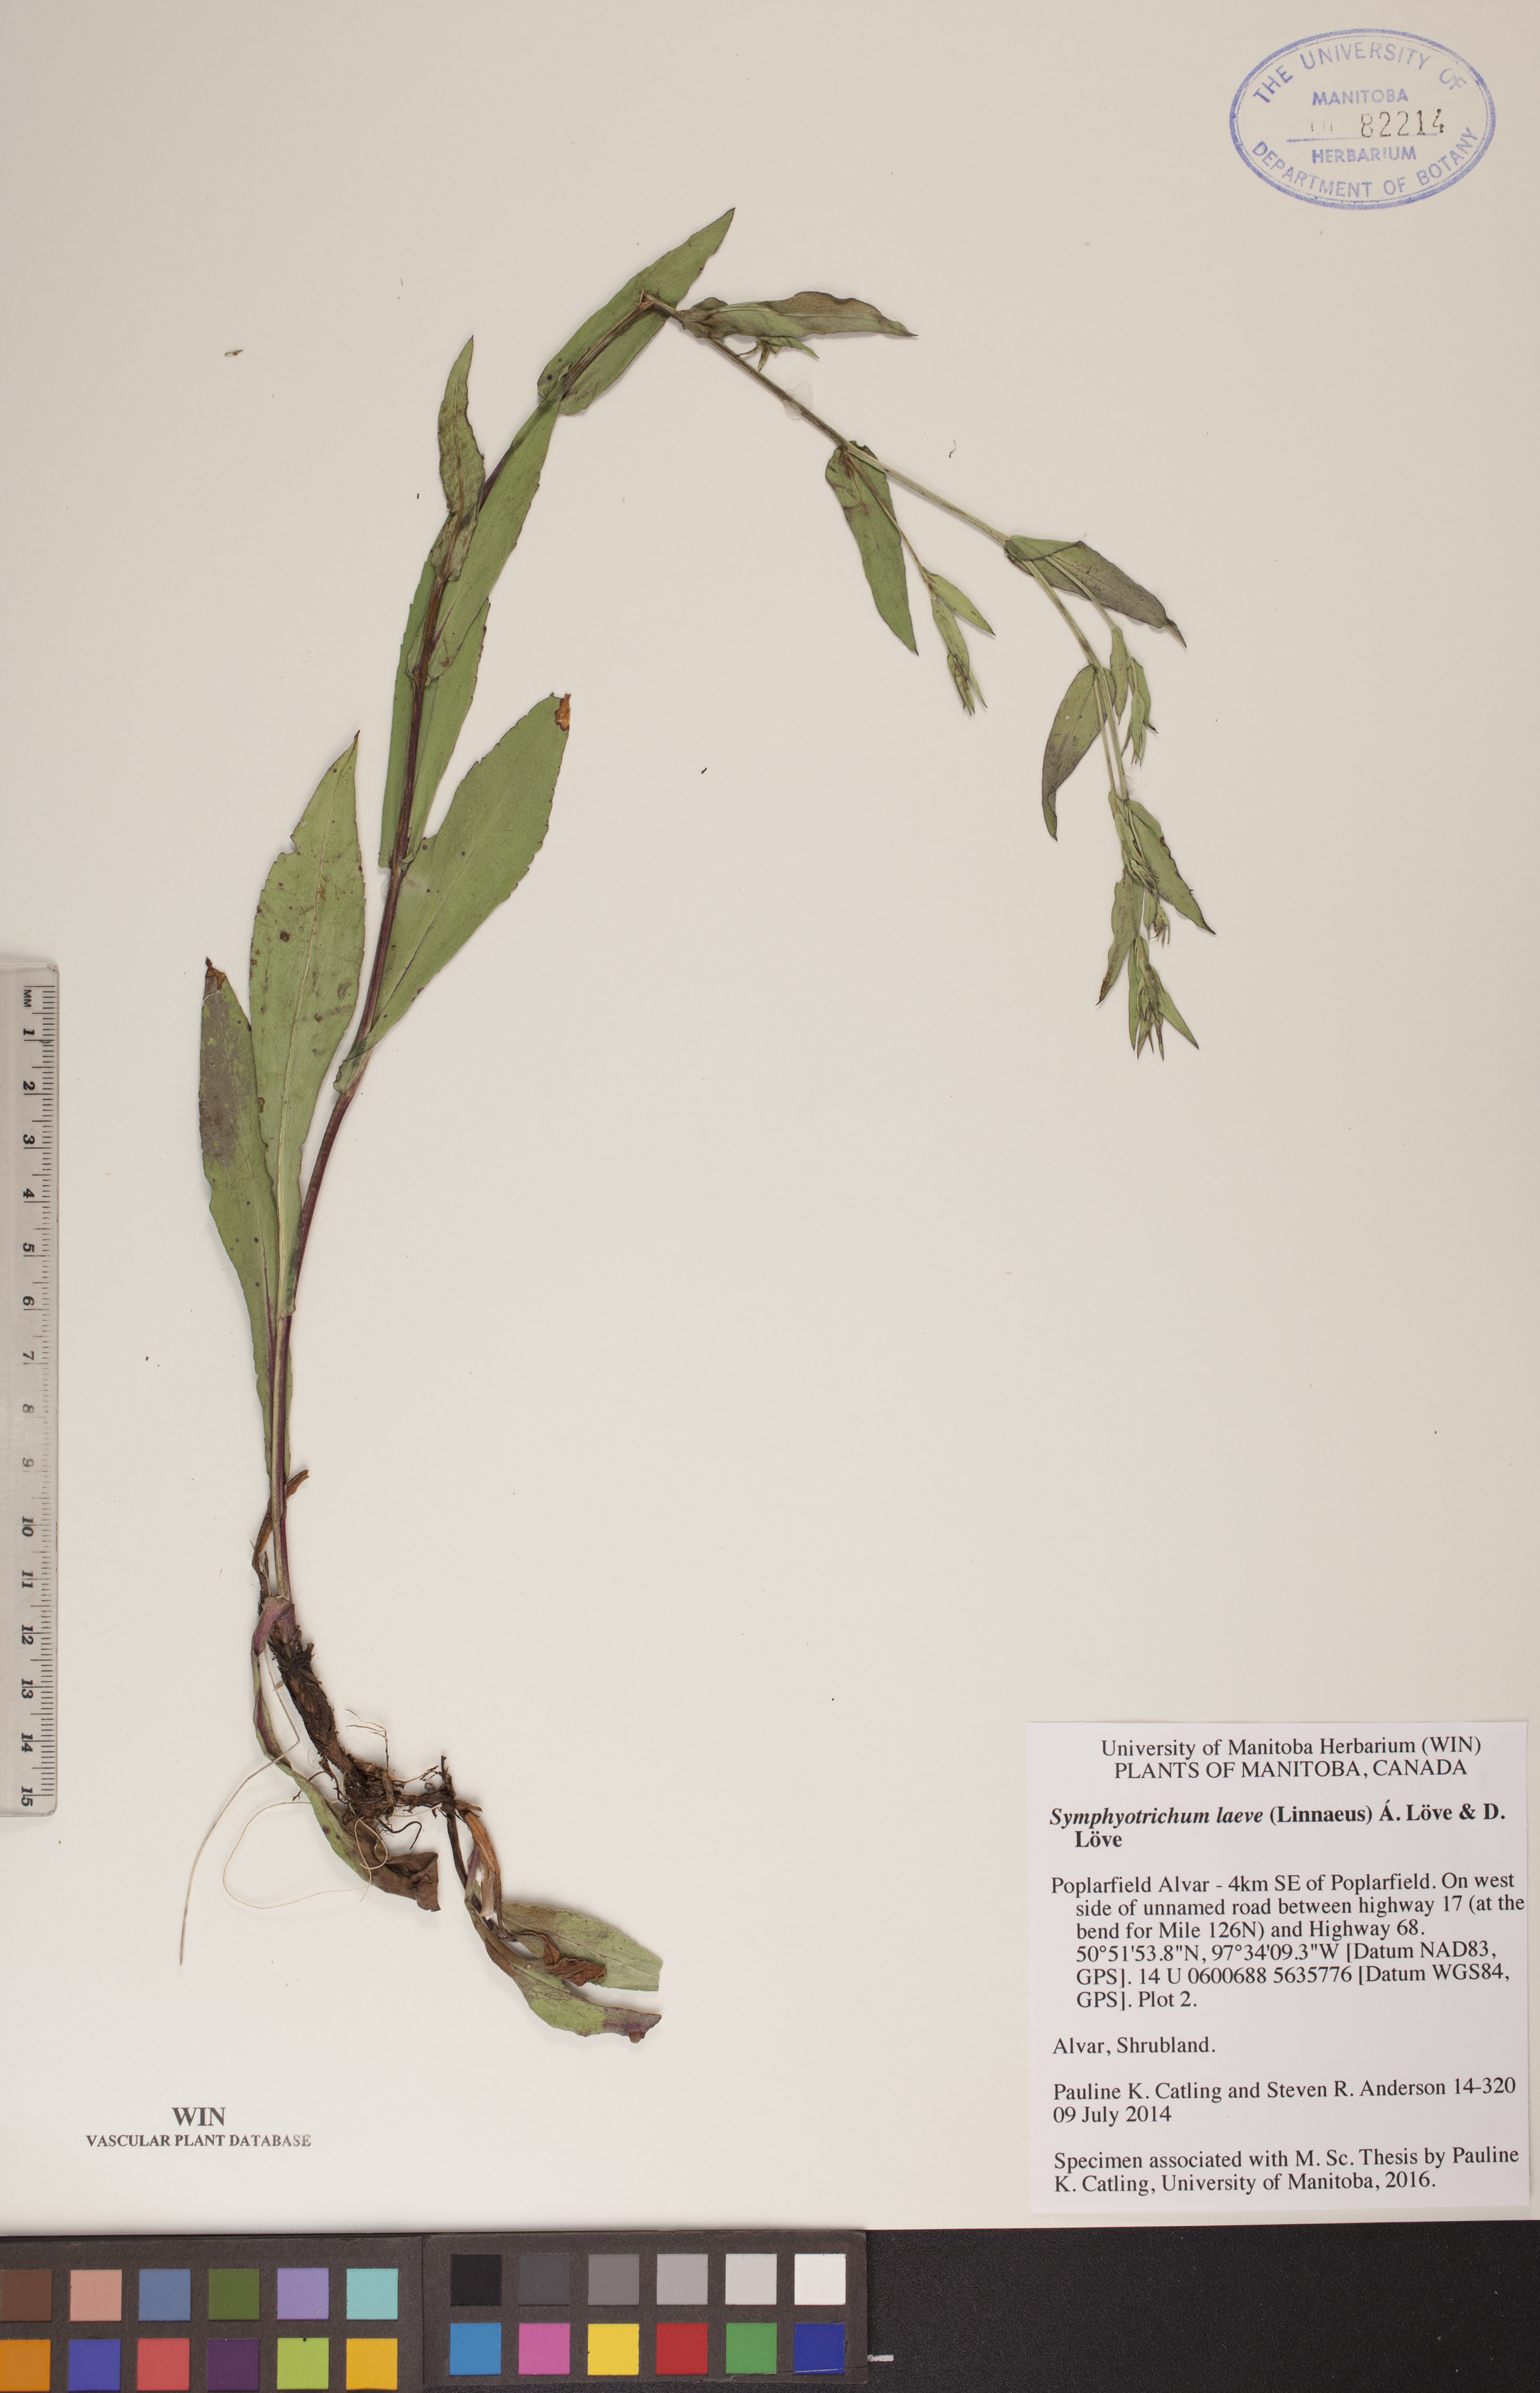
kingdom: Plantae
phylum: Tracheophyta
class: Magnoliopsida
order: Asterales
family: Asteraceae
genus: Symphyotrichum
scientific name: Symphyotrichum laeve
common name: Glaucous aster
